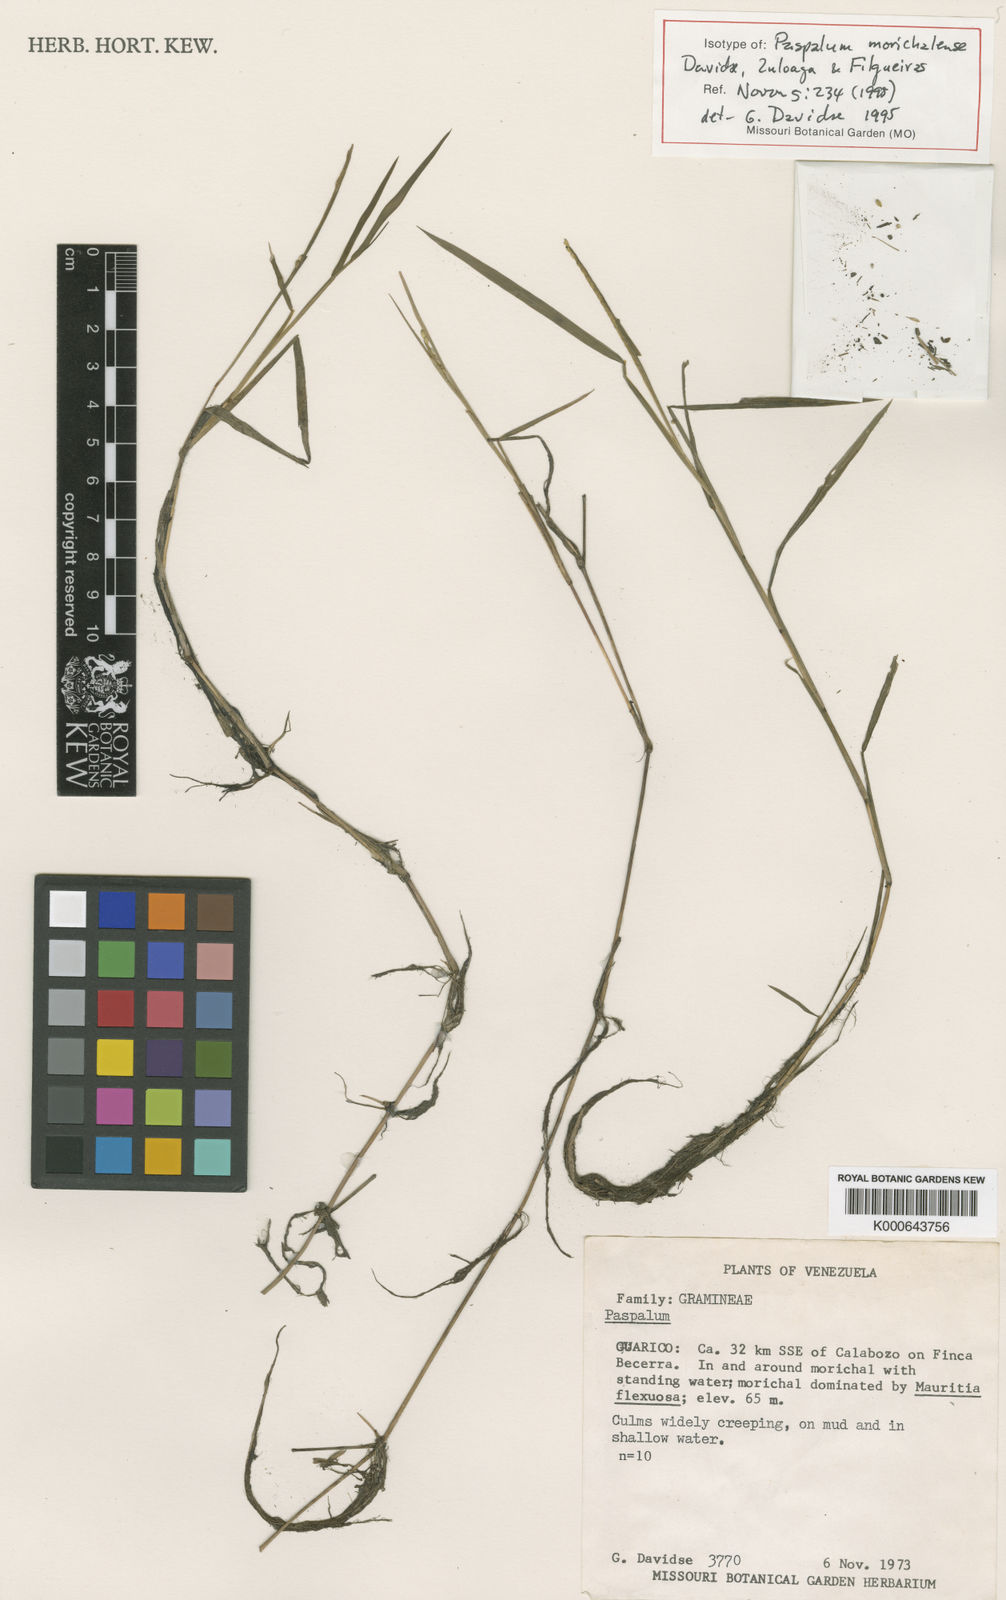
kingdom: Plantae
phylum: Tracheophyta
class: Liliopsida
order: Poales
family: Poaceae
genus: Paspalum
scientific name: Paspalum morichalense
